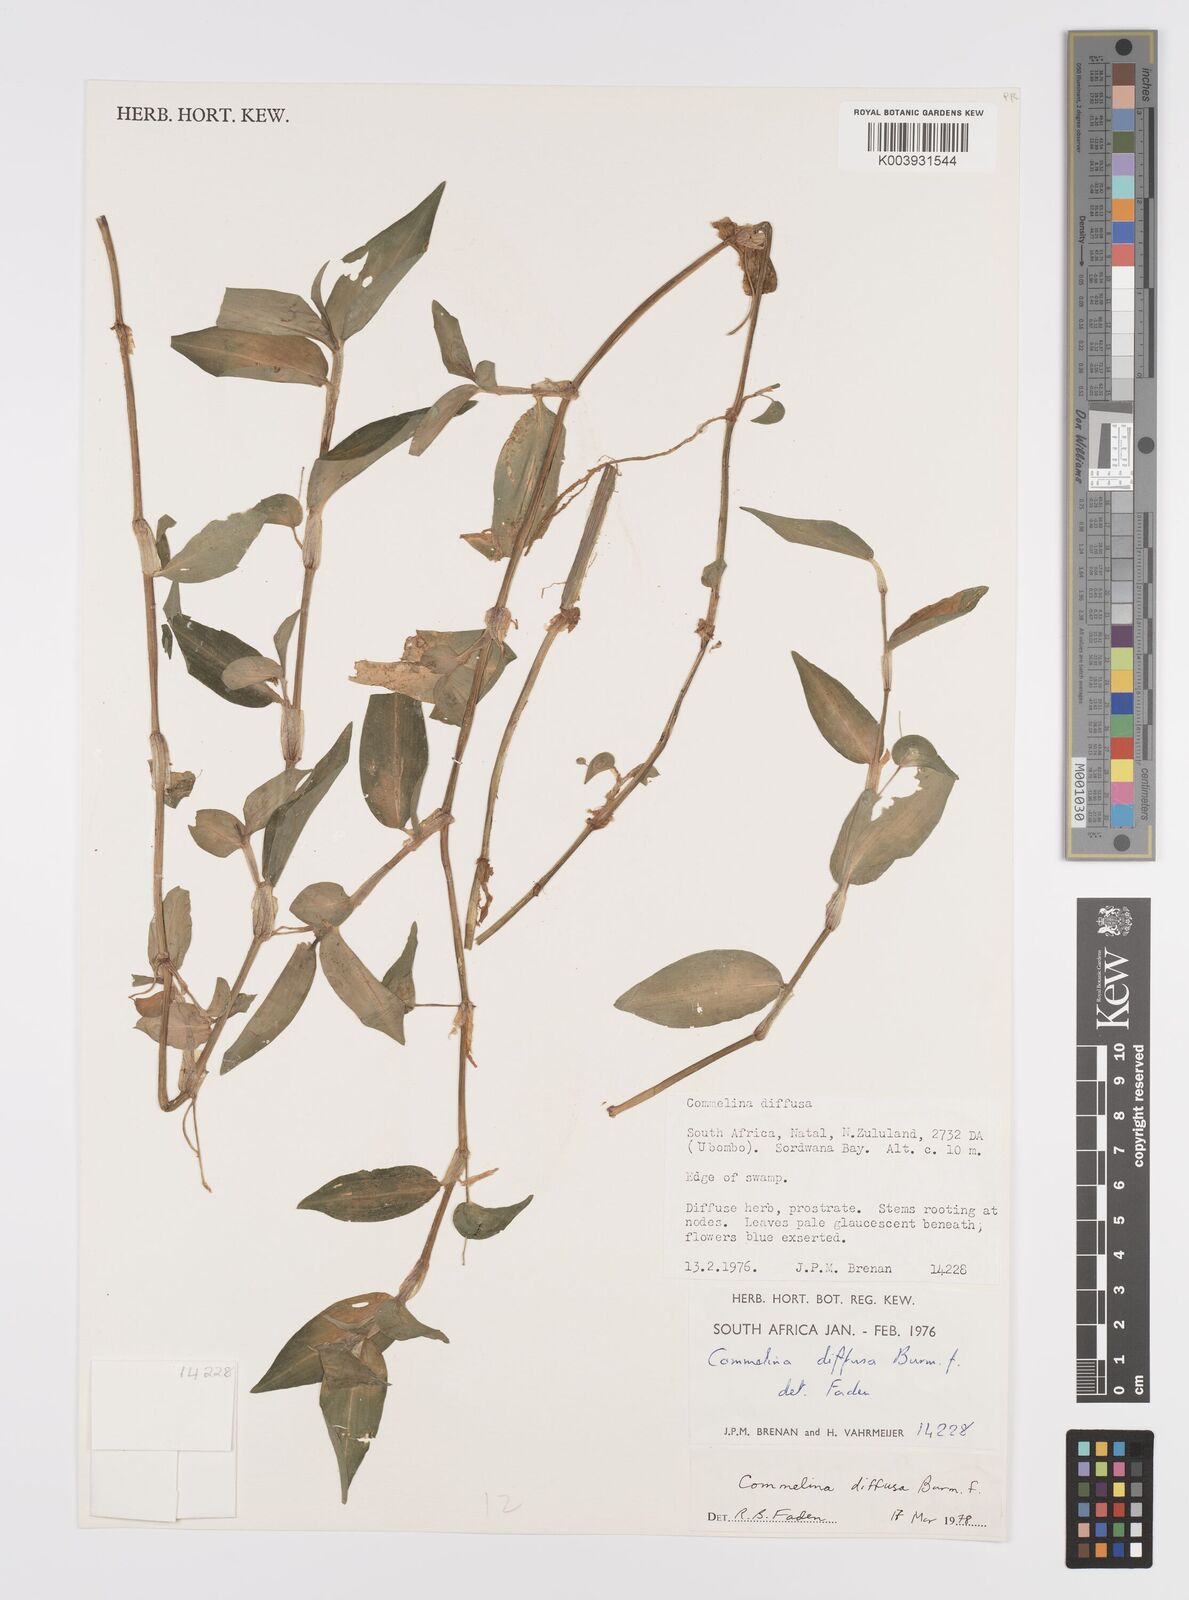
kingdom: Plantae
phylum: Tracheophyta
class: Liliopsida
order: Commelinales
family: Commelinaceae
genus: Commelina
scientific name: Commelina diffusa
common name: Climbing dayflower
